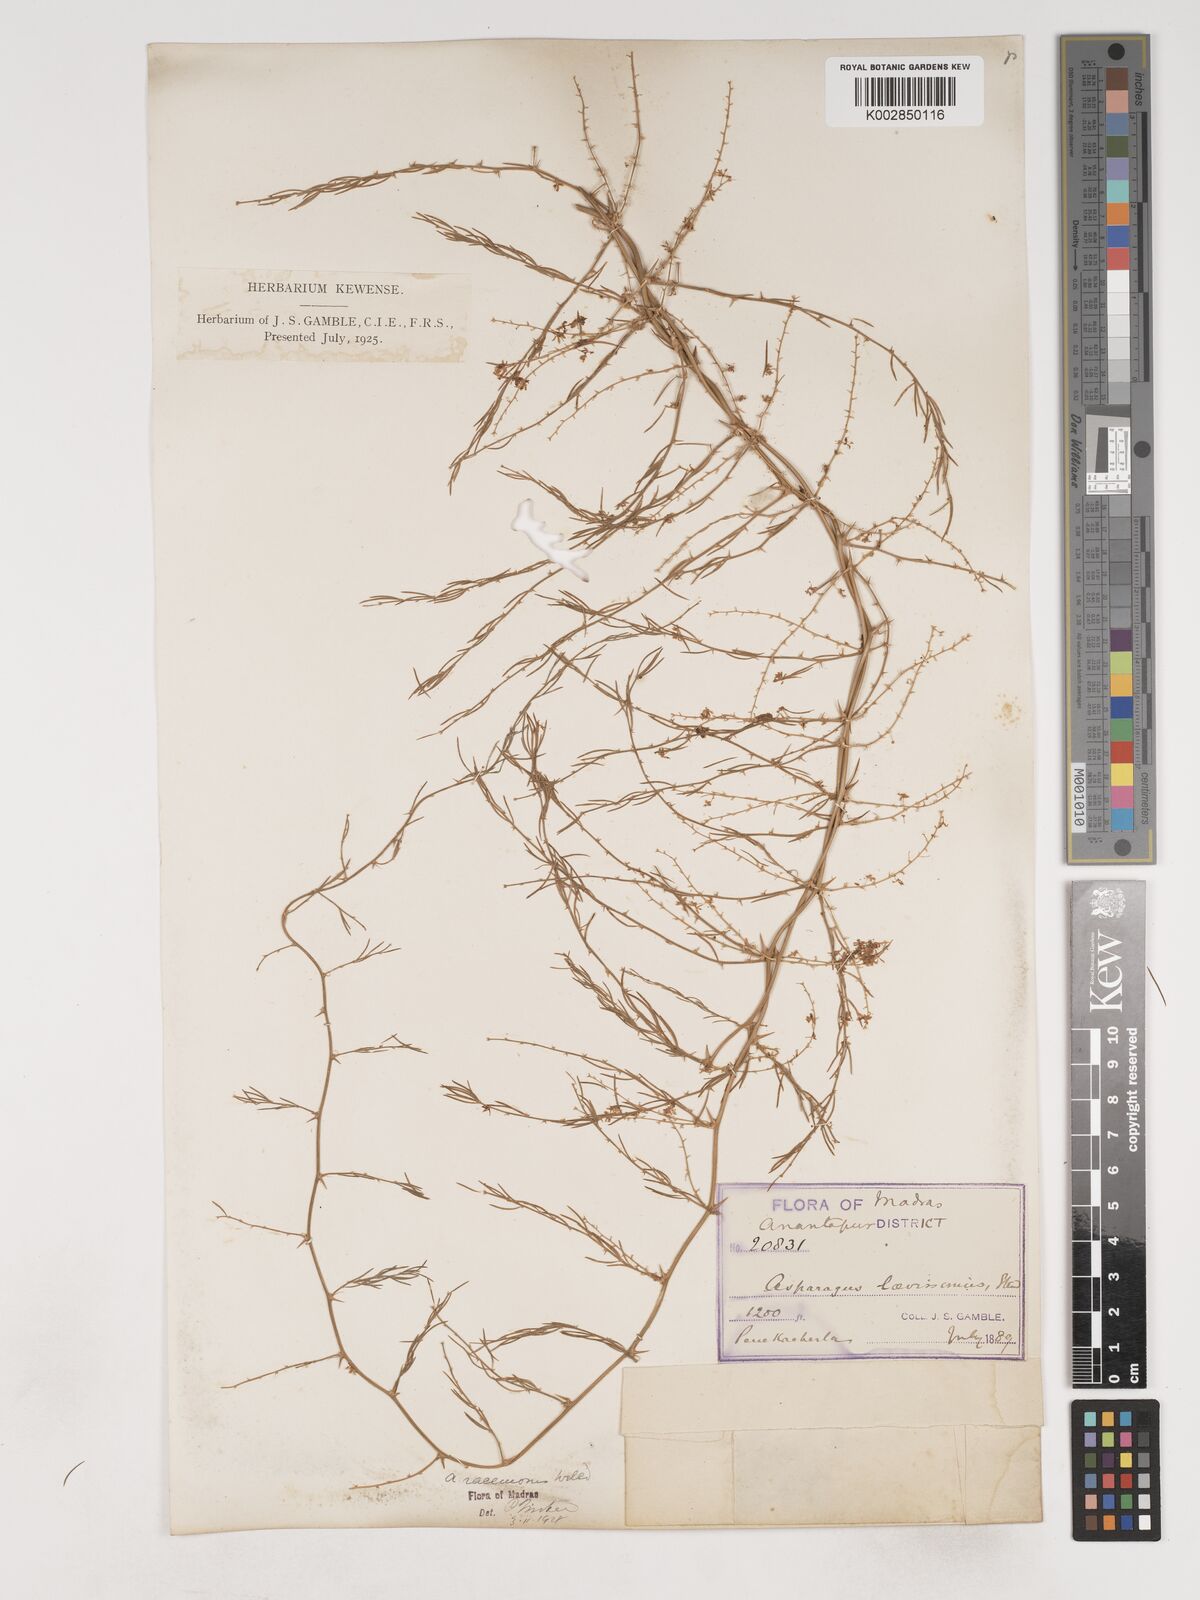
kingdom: Plantae
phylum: Tracheophyta
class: Liliopsida
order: Asparagales
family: Asparagaceae
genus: Asparagus
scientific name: Asparagus racemosus
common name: Asparagus-fern
